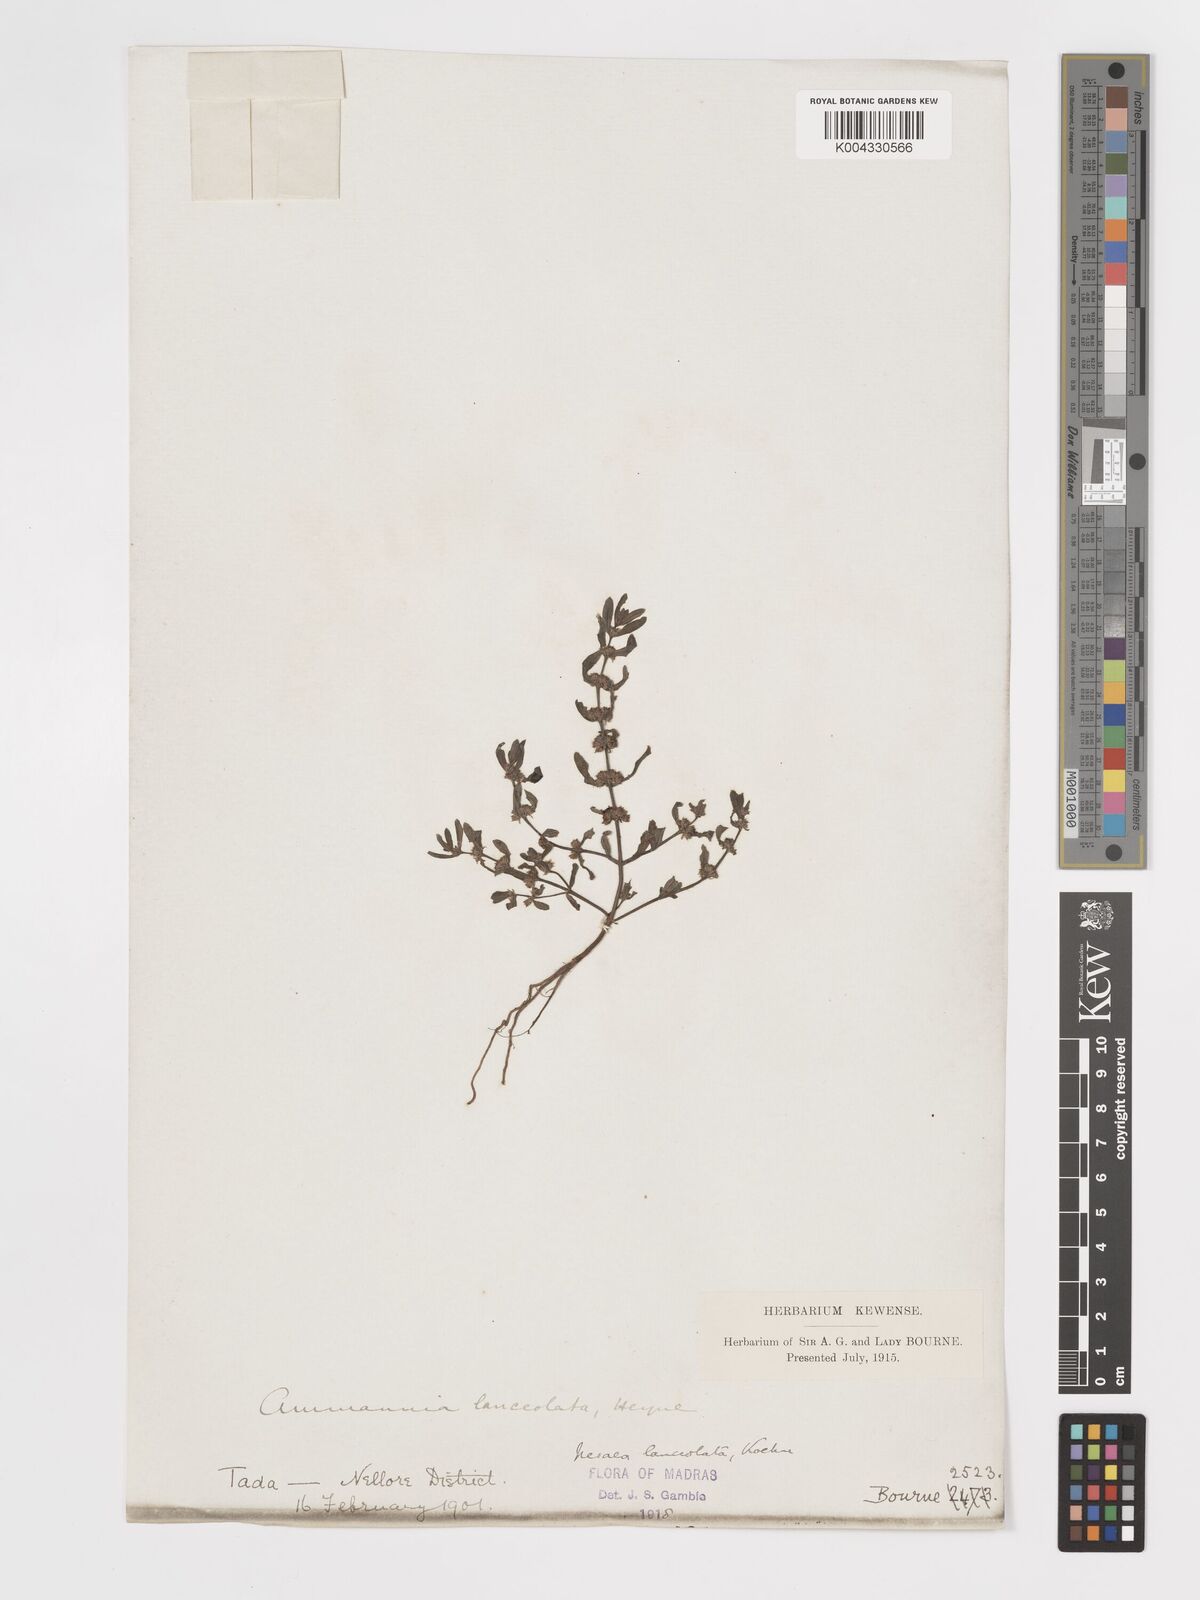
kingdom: Plantae
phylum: Tracheophyta
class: Magnoliopsida
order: Myrtales
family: Lythraceae
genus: Ammannia
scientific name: Ammannia prostrata
